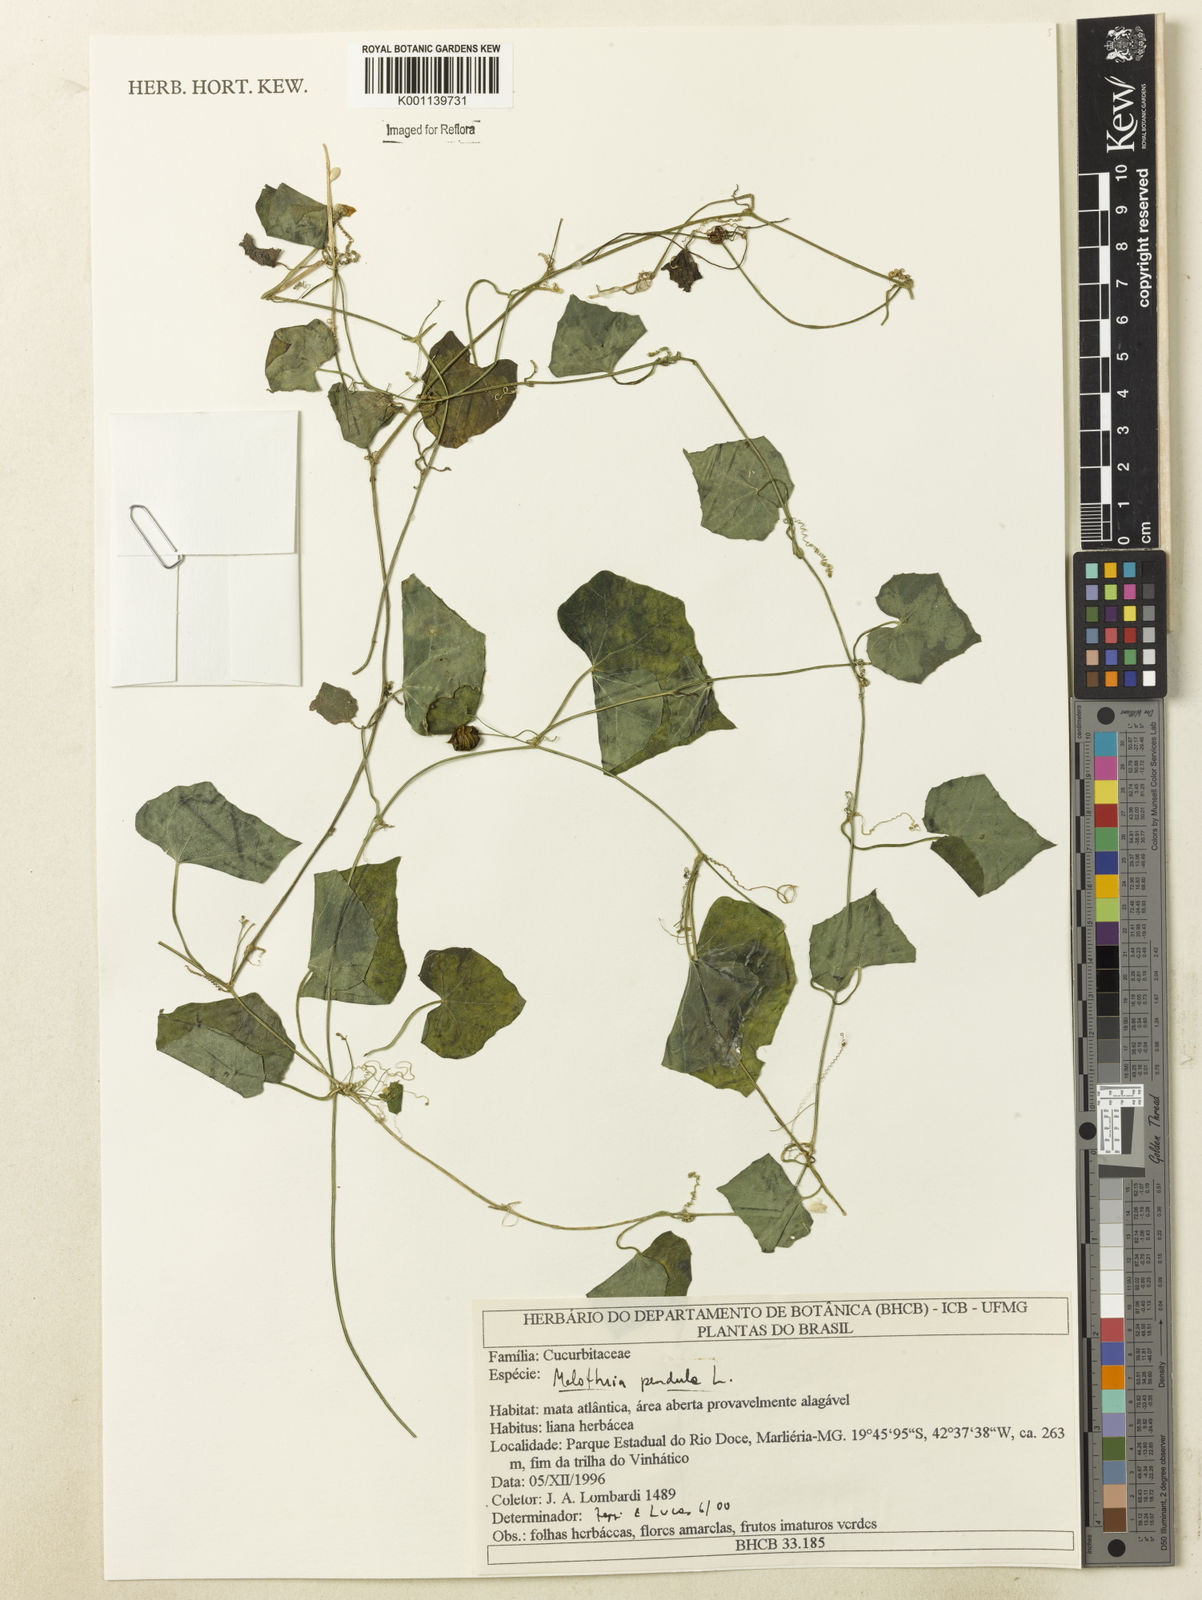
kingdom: Plantae
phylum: Tracheophyta
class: Magnoliopsida
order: Cucurbitales
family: Cucurbitaceae
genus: Melothria
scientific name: Melothria pendula
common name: Creeping-cucumber
